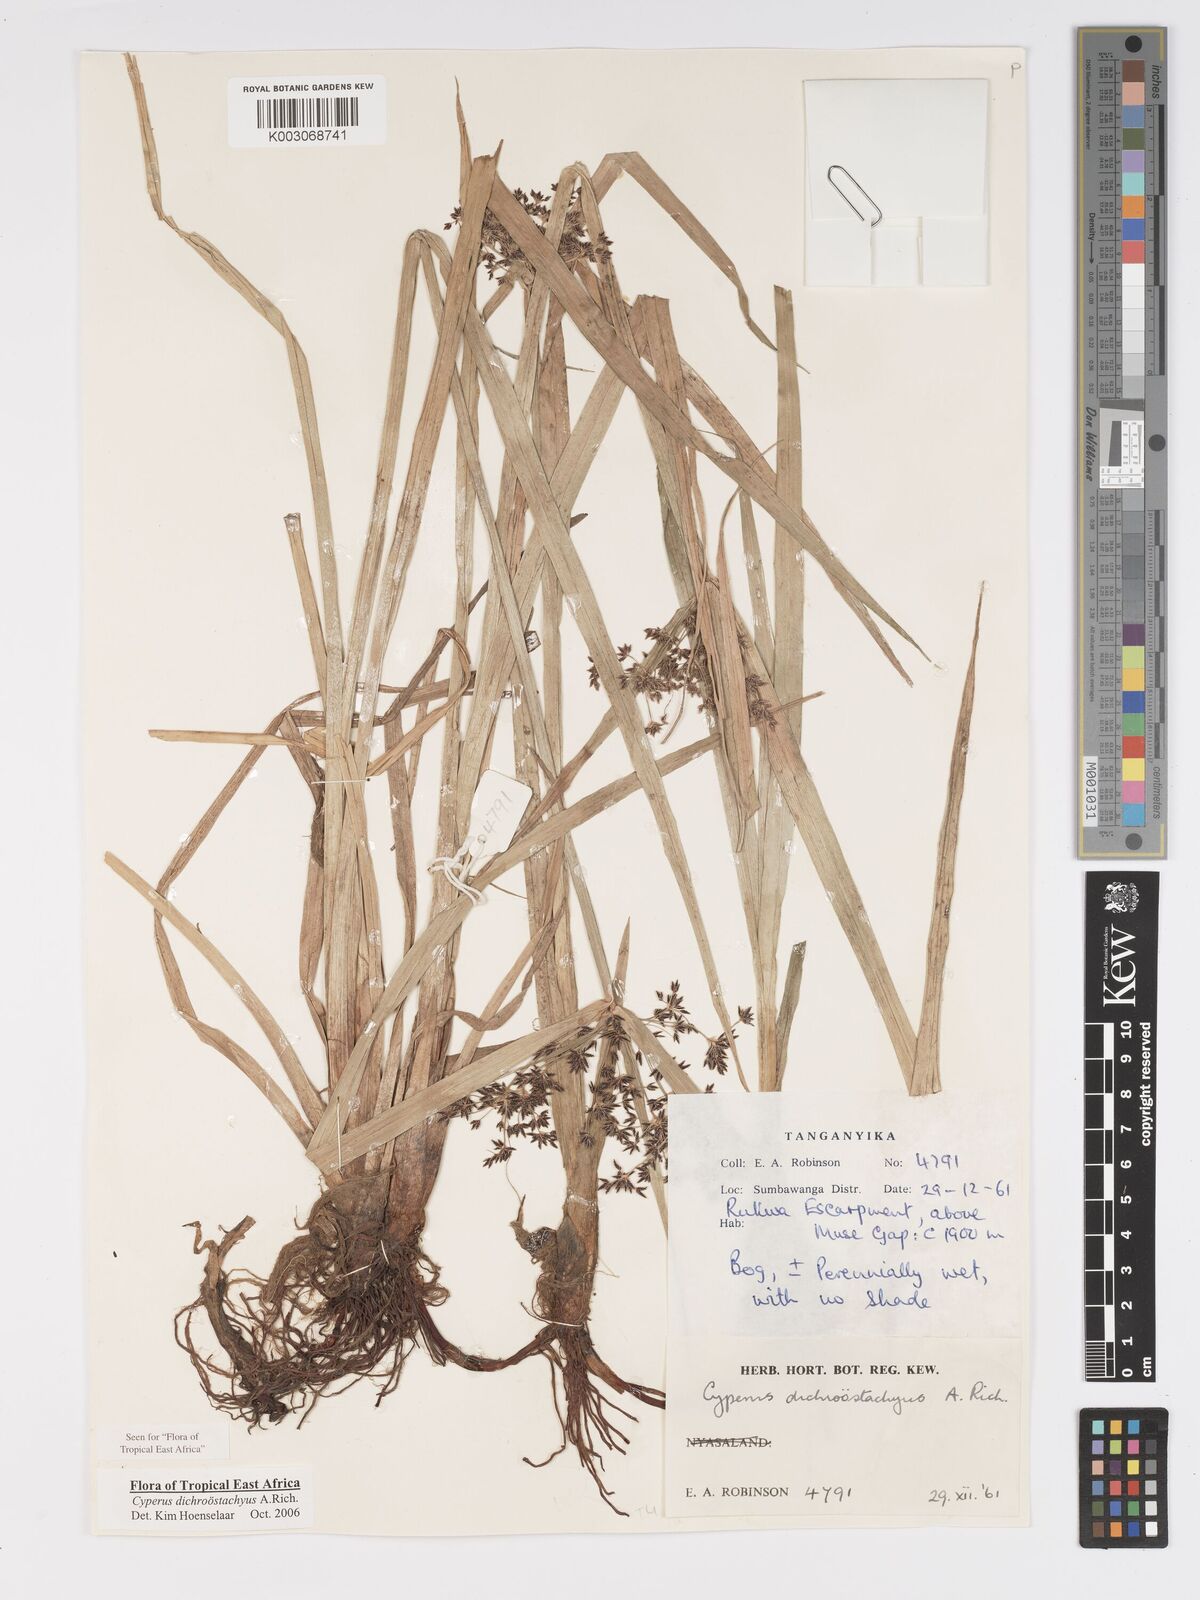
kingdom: Plantae
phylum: Tracheophyta
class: Liliopsida
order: Poales
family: Cyperaceae
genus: Cyperus
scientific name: Cyperus dichrostachyus
